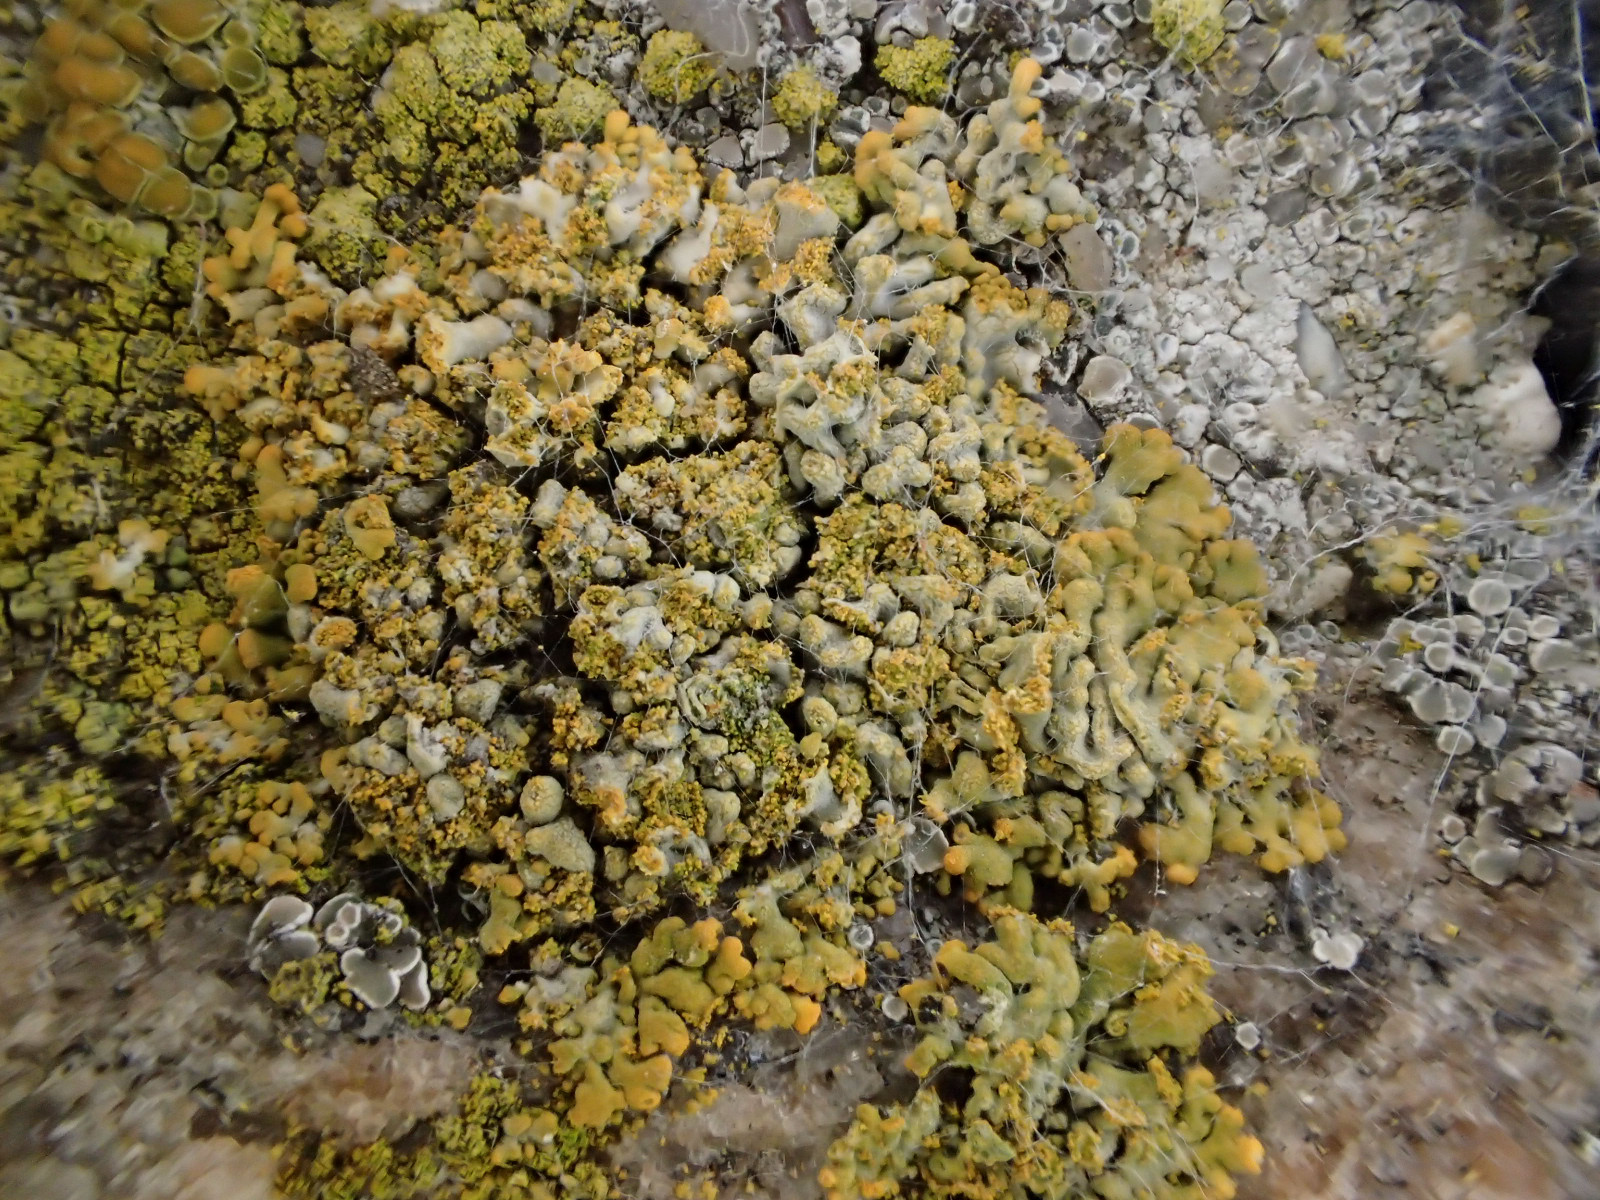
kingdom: Fungi
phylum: Ascomycota
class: Lecanoromycetes
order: Teloschistales
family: Teloschistaceae
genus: Calogaya
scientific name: Calogaya decipiens
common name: knudret orangelav
